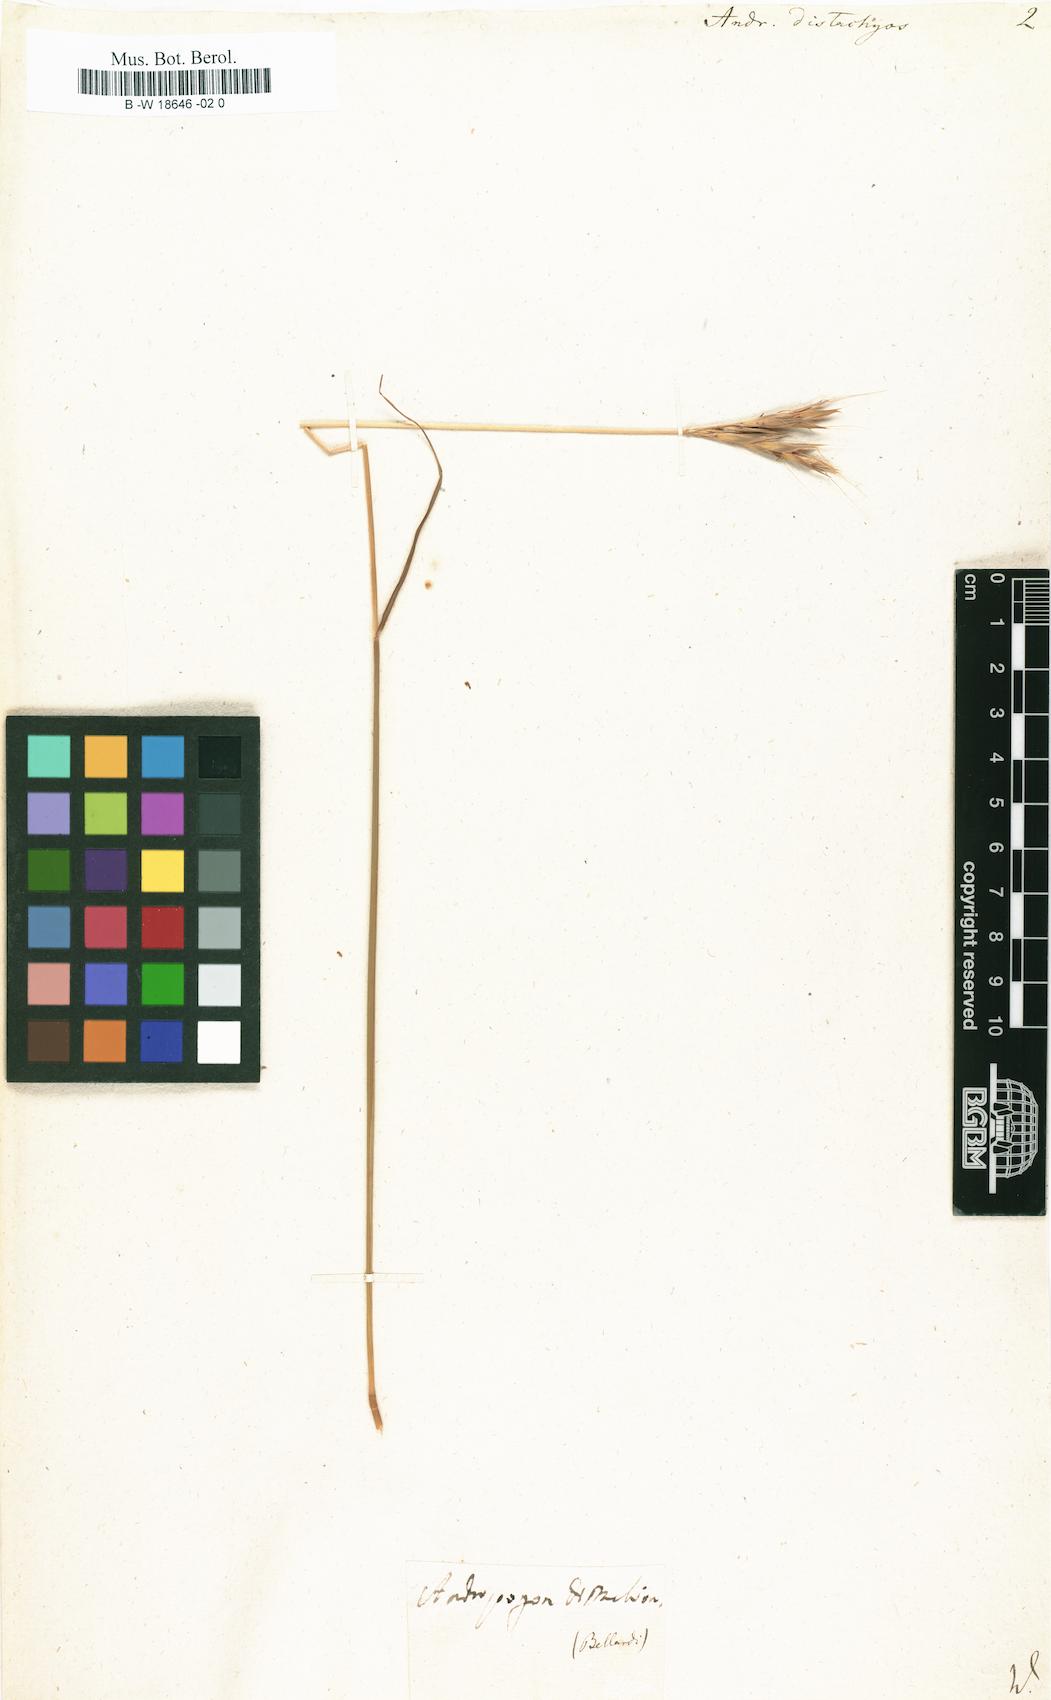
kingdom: Plantae
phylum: Tracheophyta
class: Liliopsida
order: Poales
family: Poaceae
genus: Andropogon
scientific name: Andropogon distachyos
